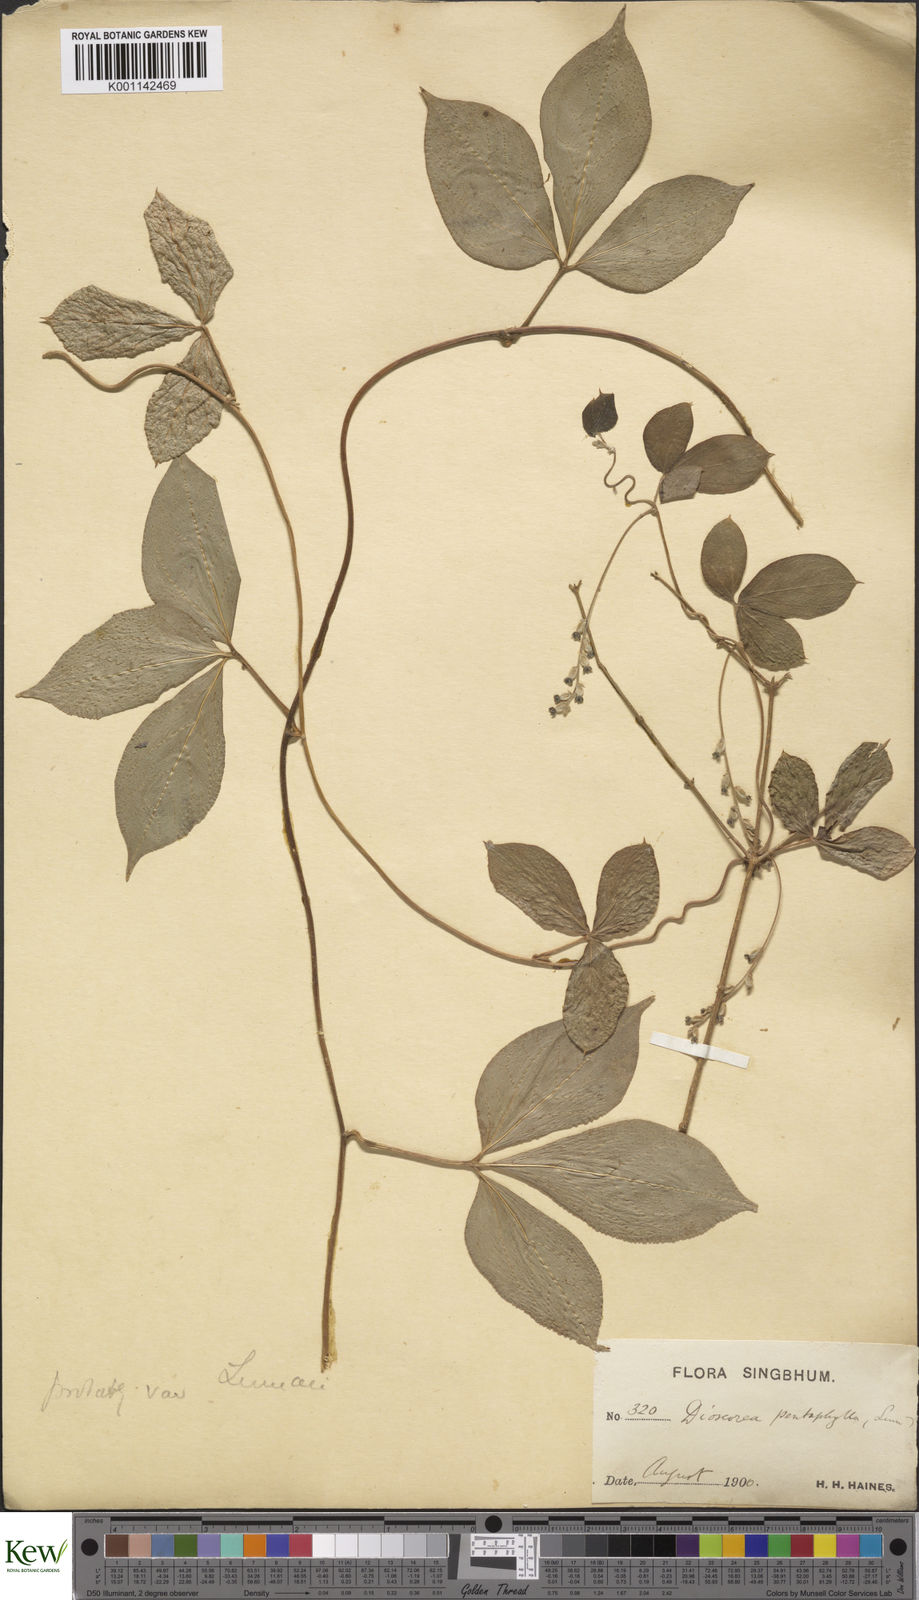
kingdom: Plantae
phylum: Tracheophyta
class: Liliopsida
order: Dioscoreales
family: Dioscoreaceae
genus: Dioscorea
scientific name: Dioscorea pentaphylla
